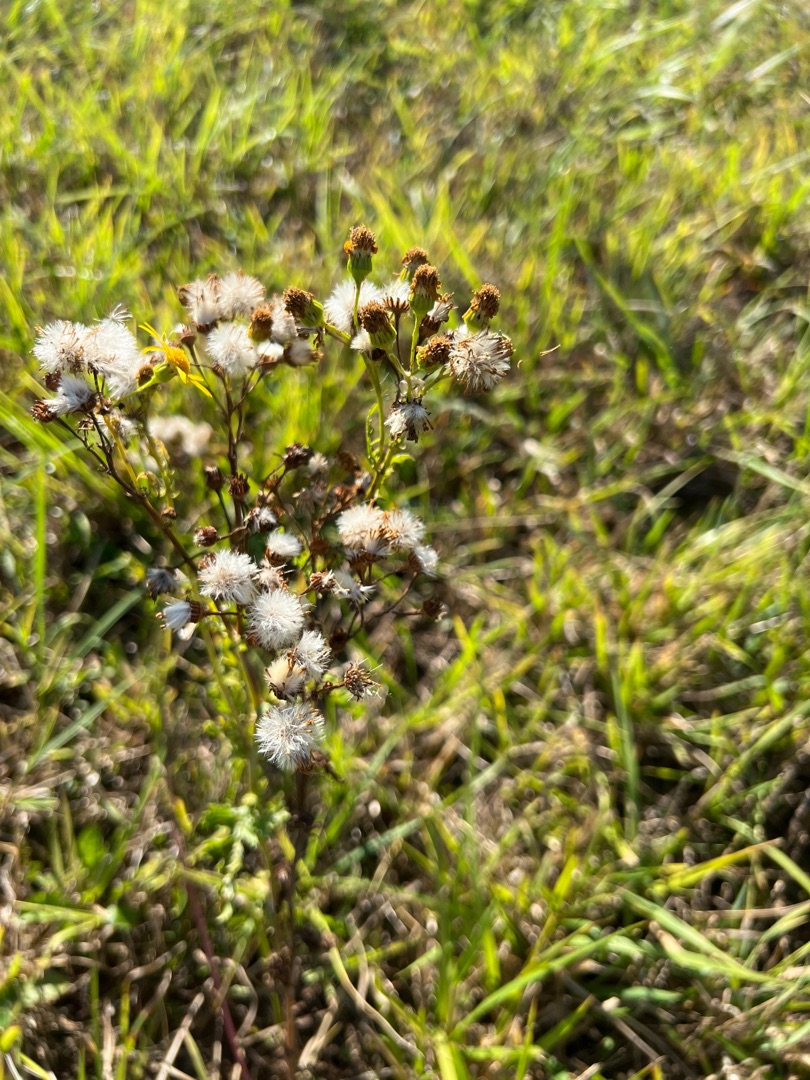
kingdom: Plantae
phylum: Tracheophyta
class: Magnoliopsida
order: Asterales
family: Asteraceae
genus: Jacobaea
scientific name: Jacobaea vulgaris
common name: Eng-brandbæger
